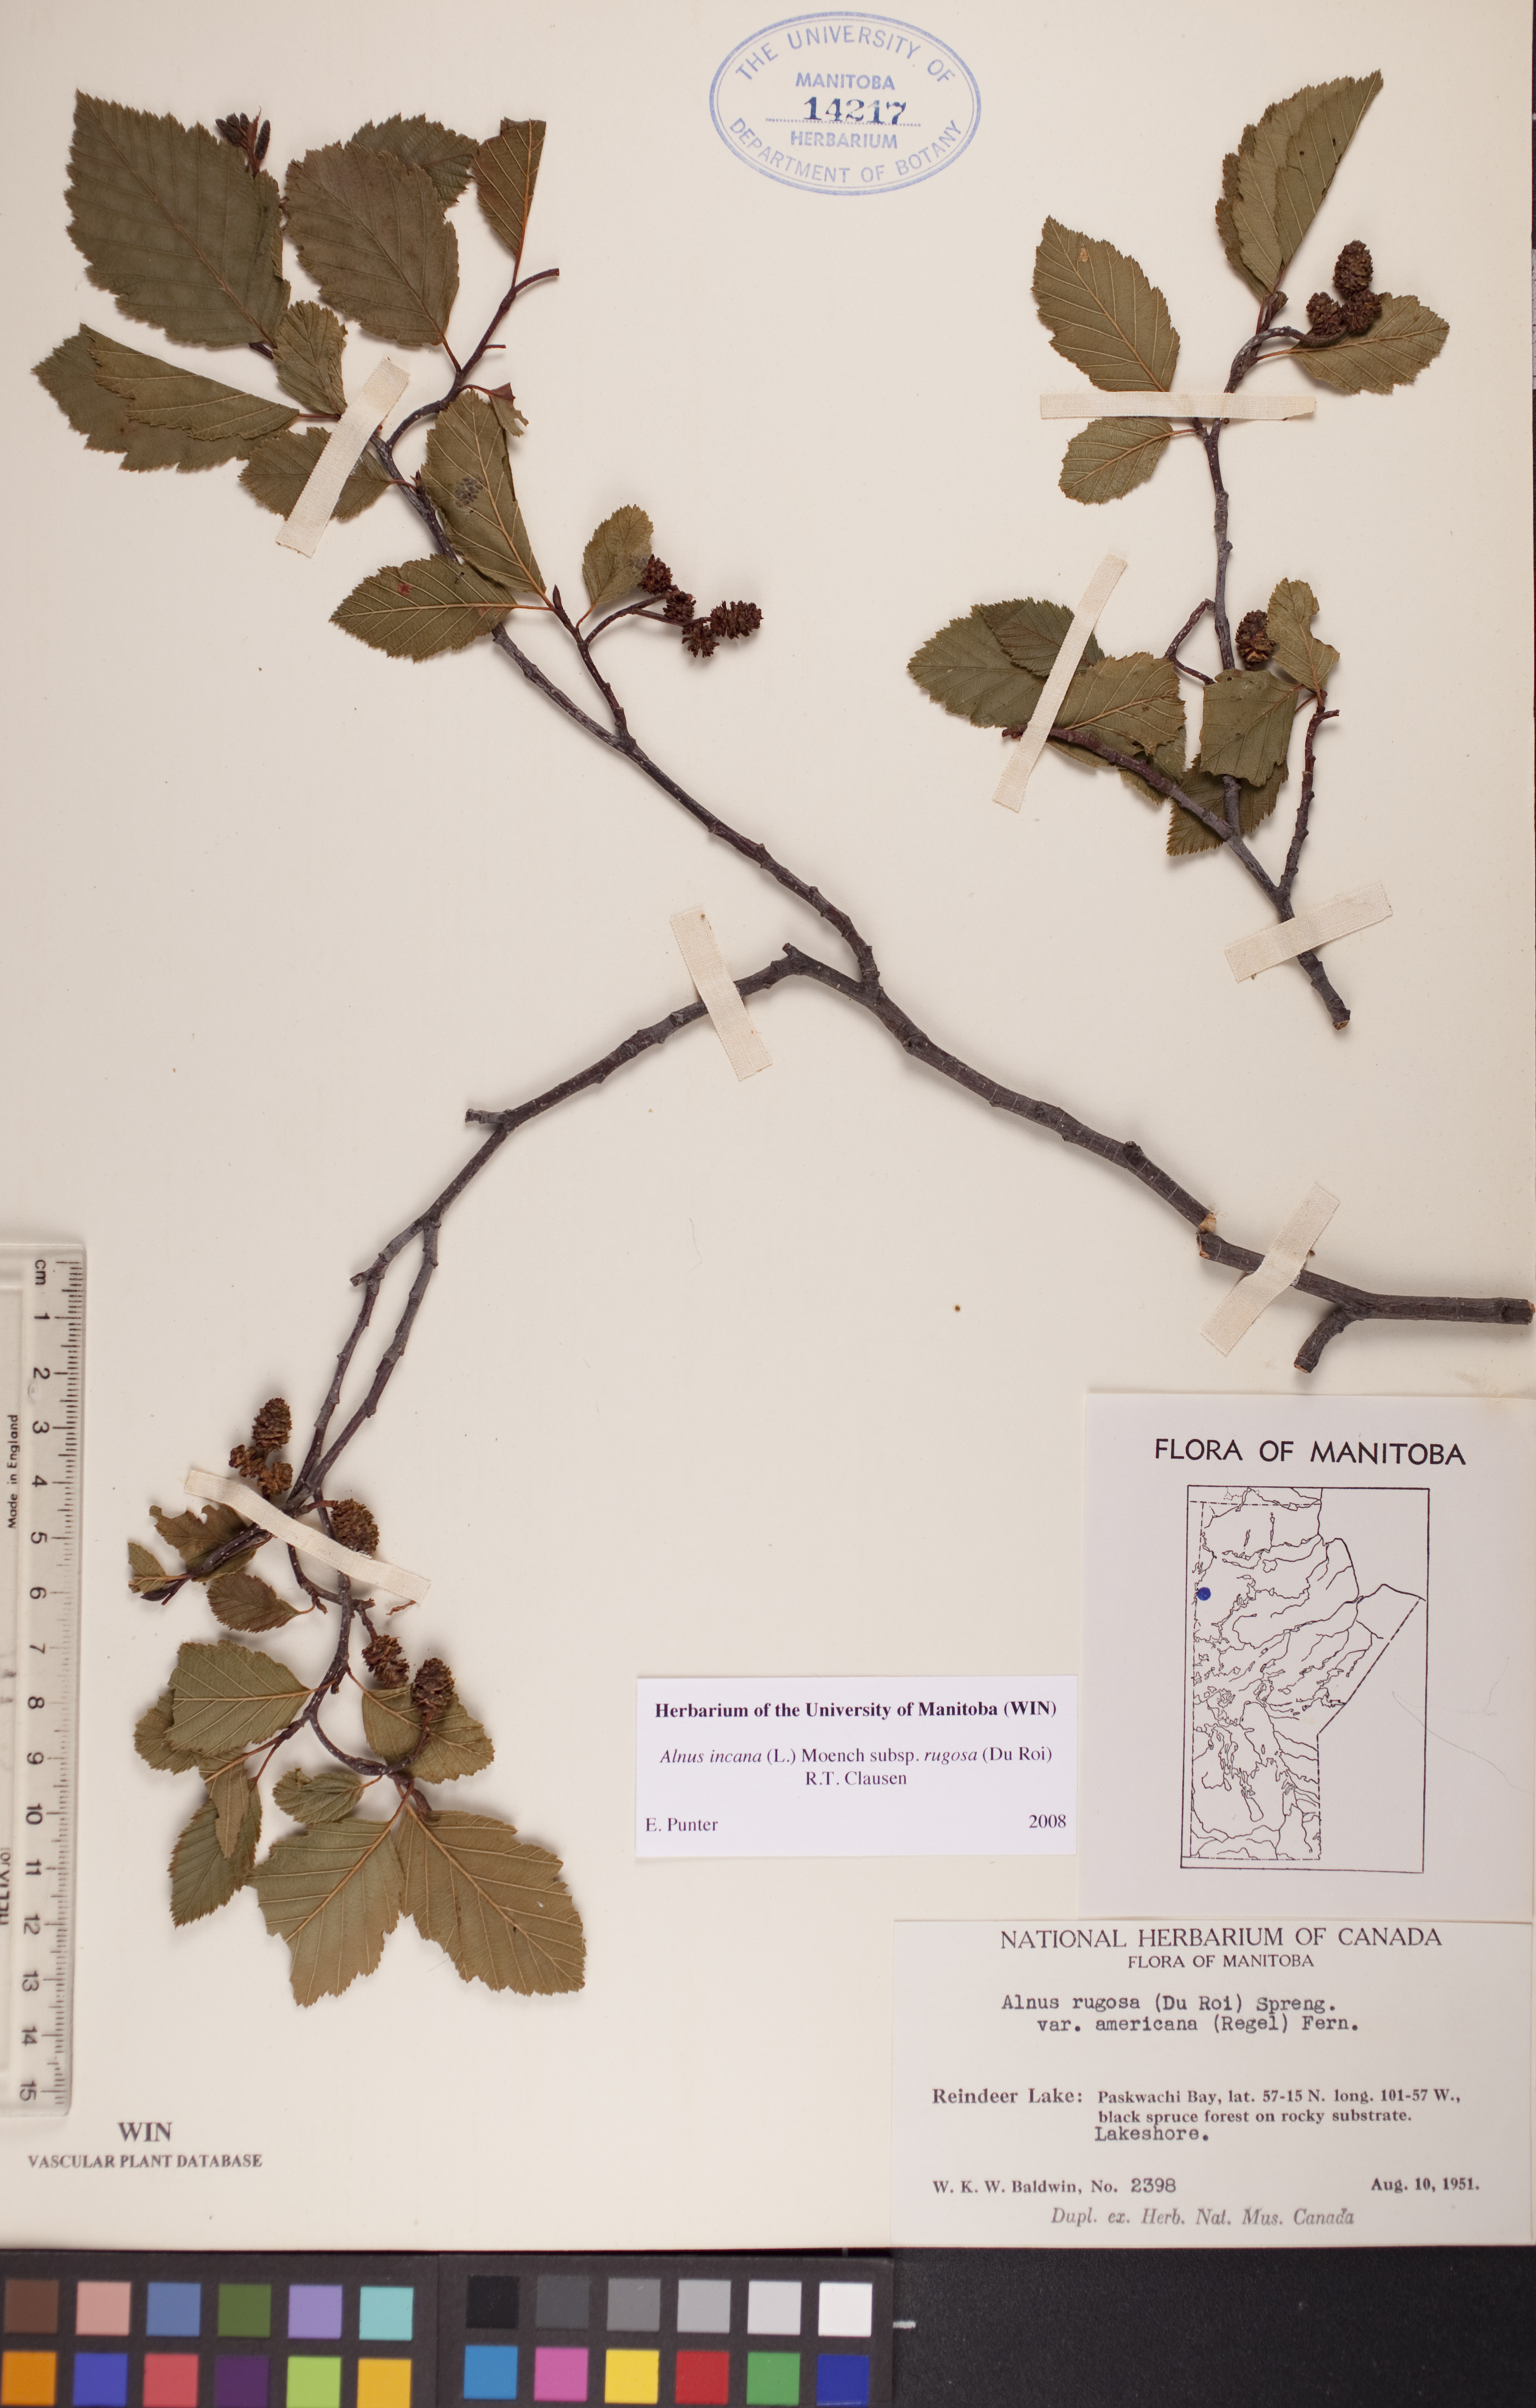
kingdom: Plantae
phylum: Tracheophyta
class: Magnoliopsida
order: Fagales
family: Betulaceae
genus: Alnus
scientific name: Alnus incana
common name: Grey alder
